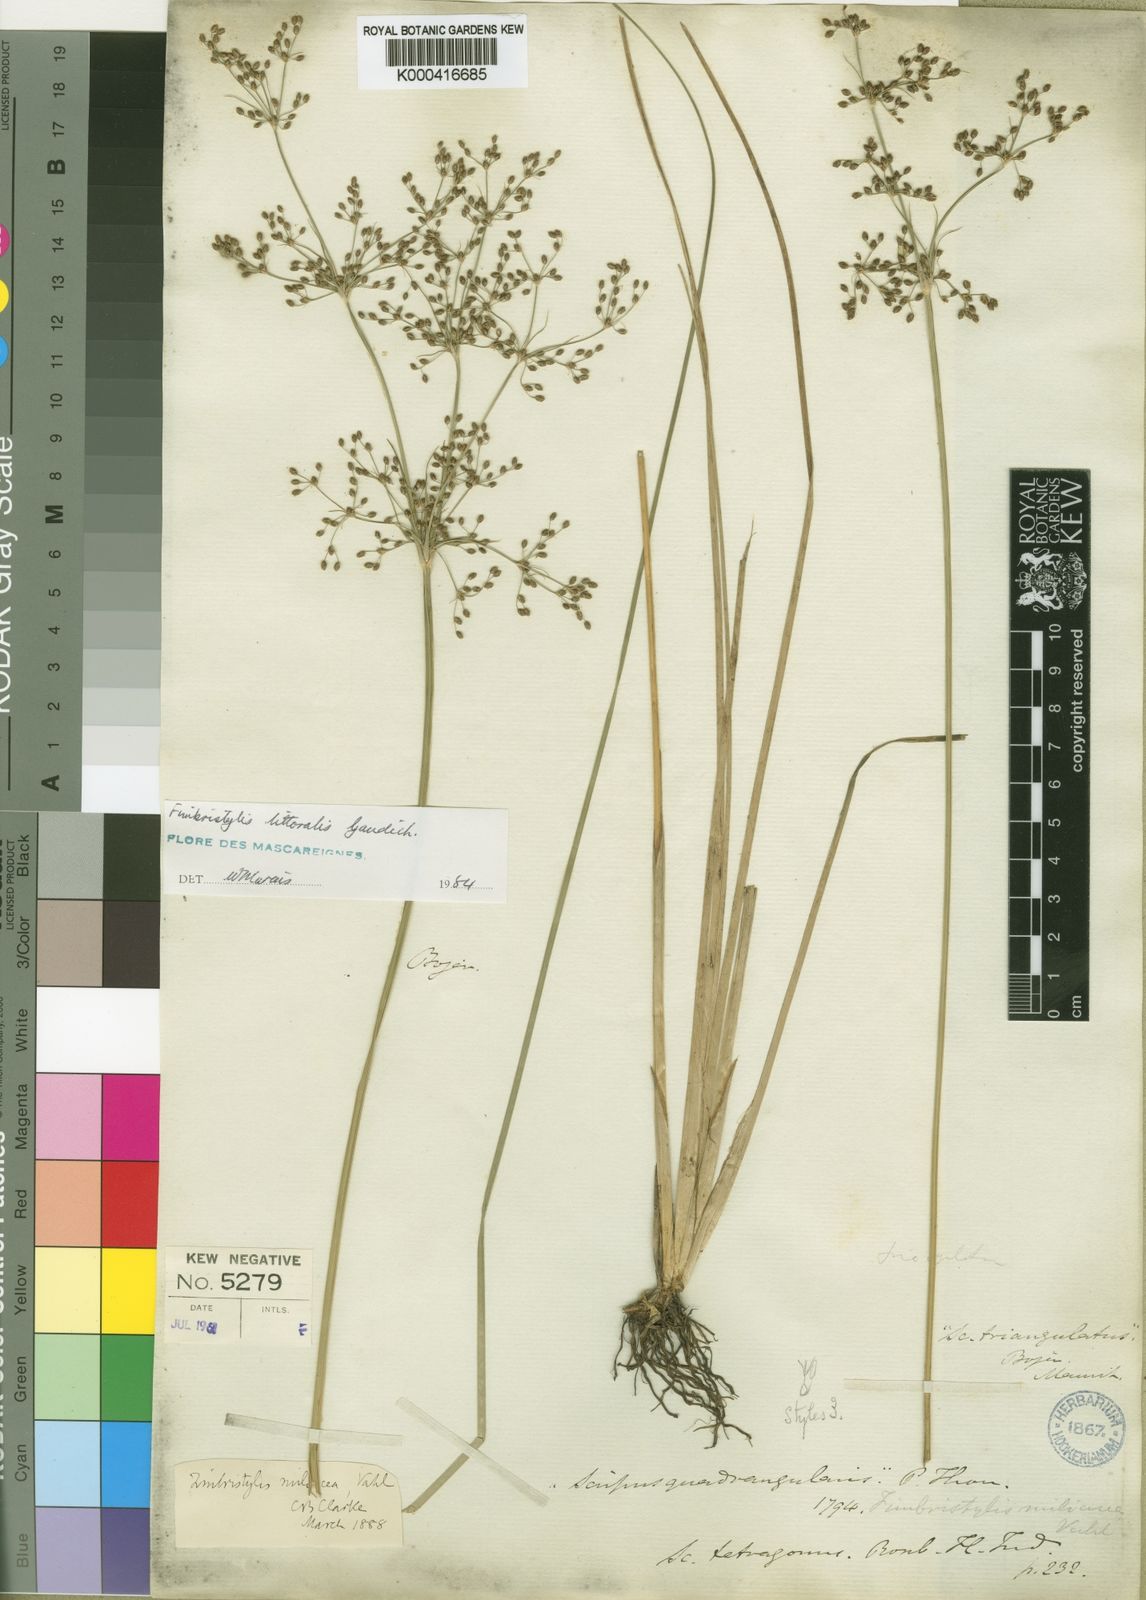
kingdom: Plantae
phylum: Tracheophyta
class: Liliopsida
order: Poales
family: Cyperaceae
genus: Fimbristylis
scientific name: Fimbristylis littoralis
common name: Fimbry
